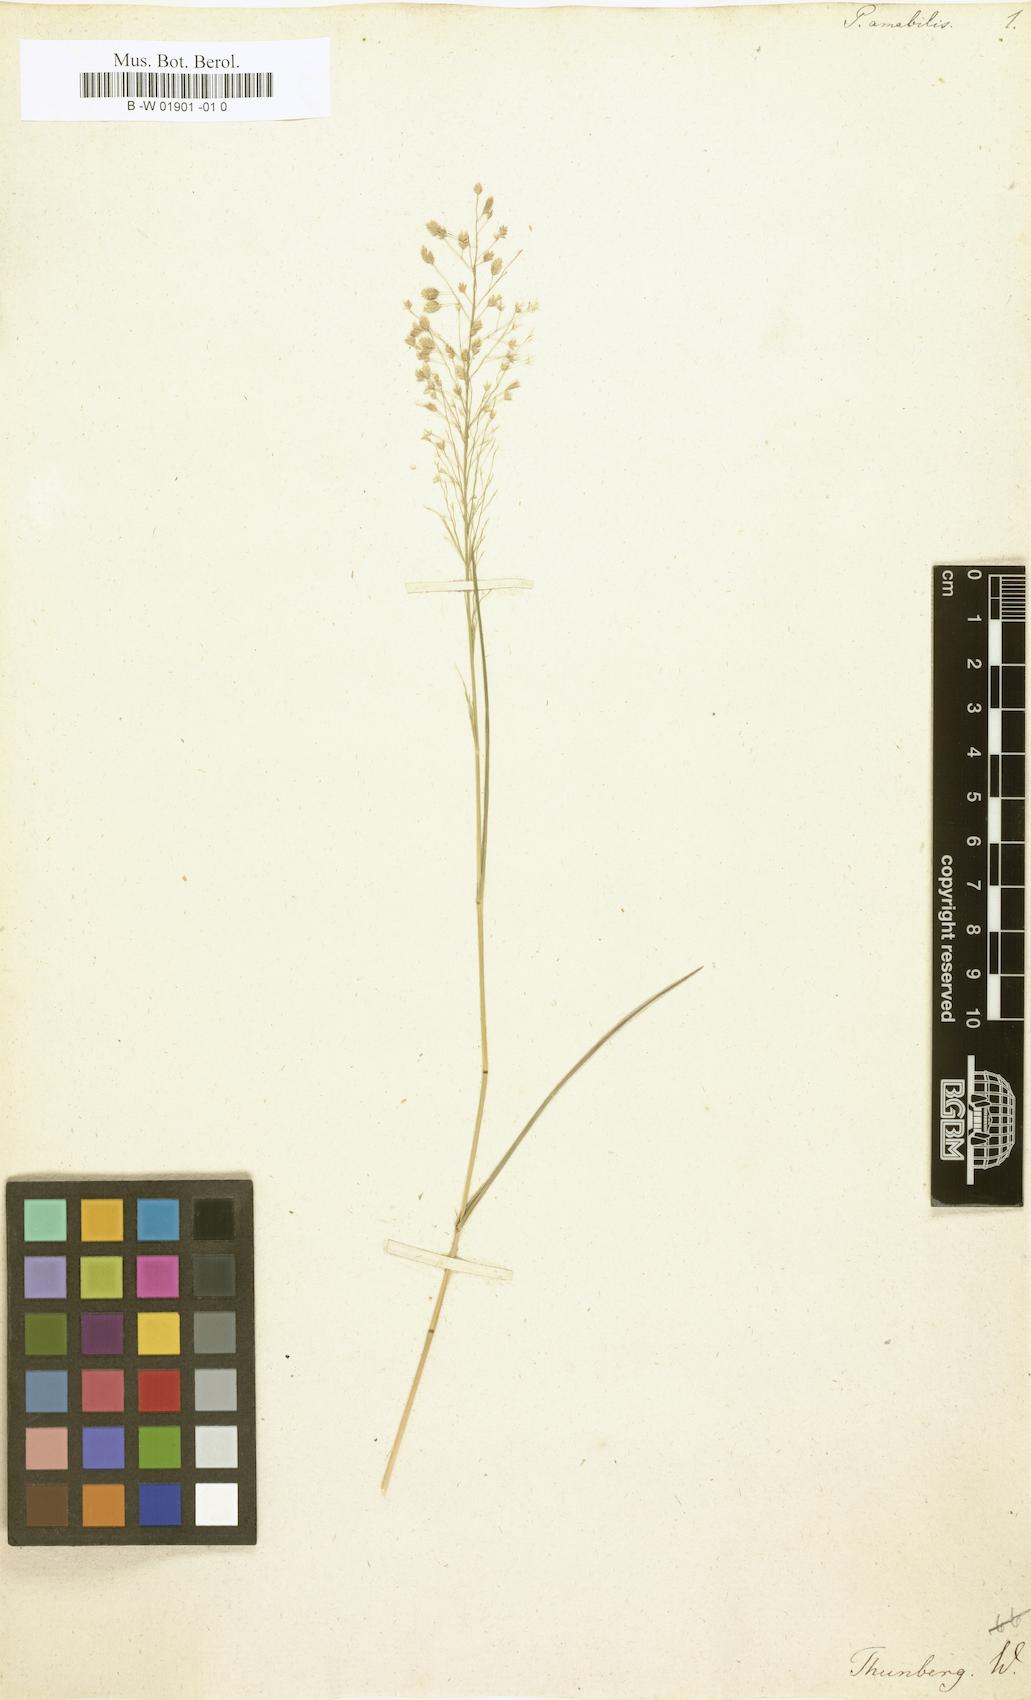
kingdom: Plantae
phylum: Tracheophyta
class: Liliopsida
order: Poales
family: Poaceae
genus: Eragrostis
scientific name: Eragrostis
